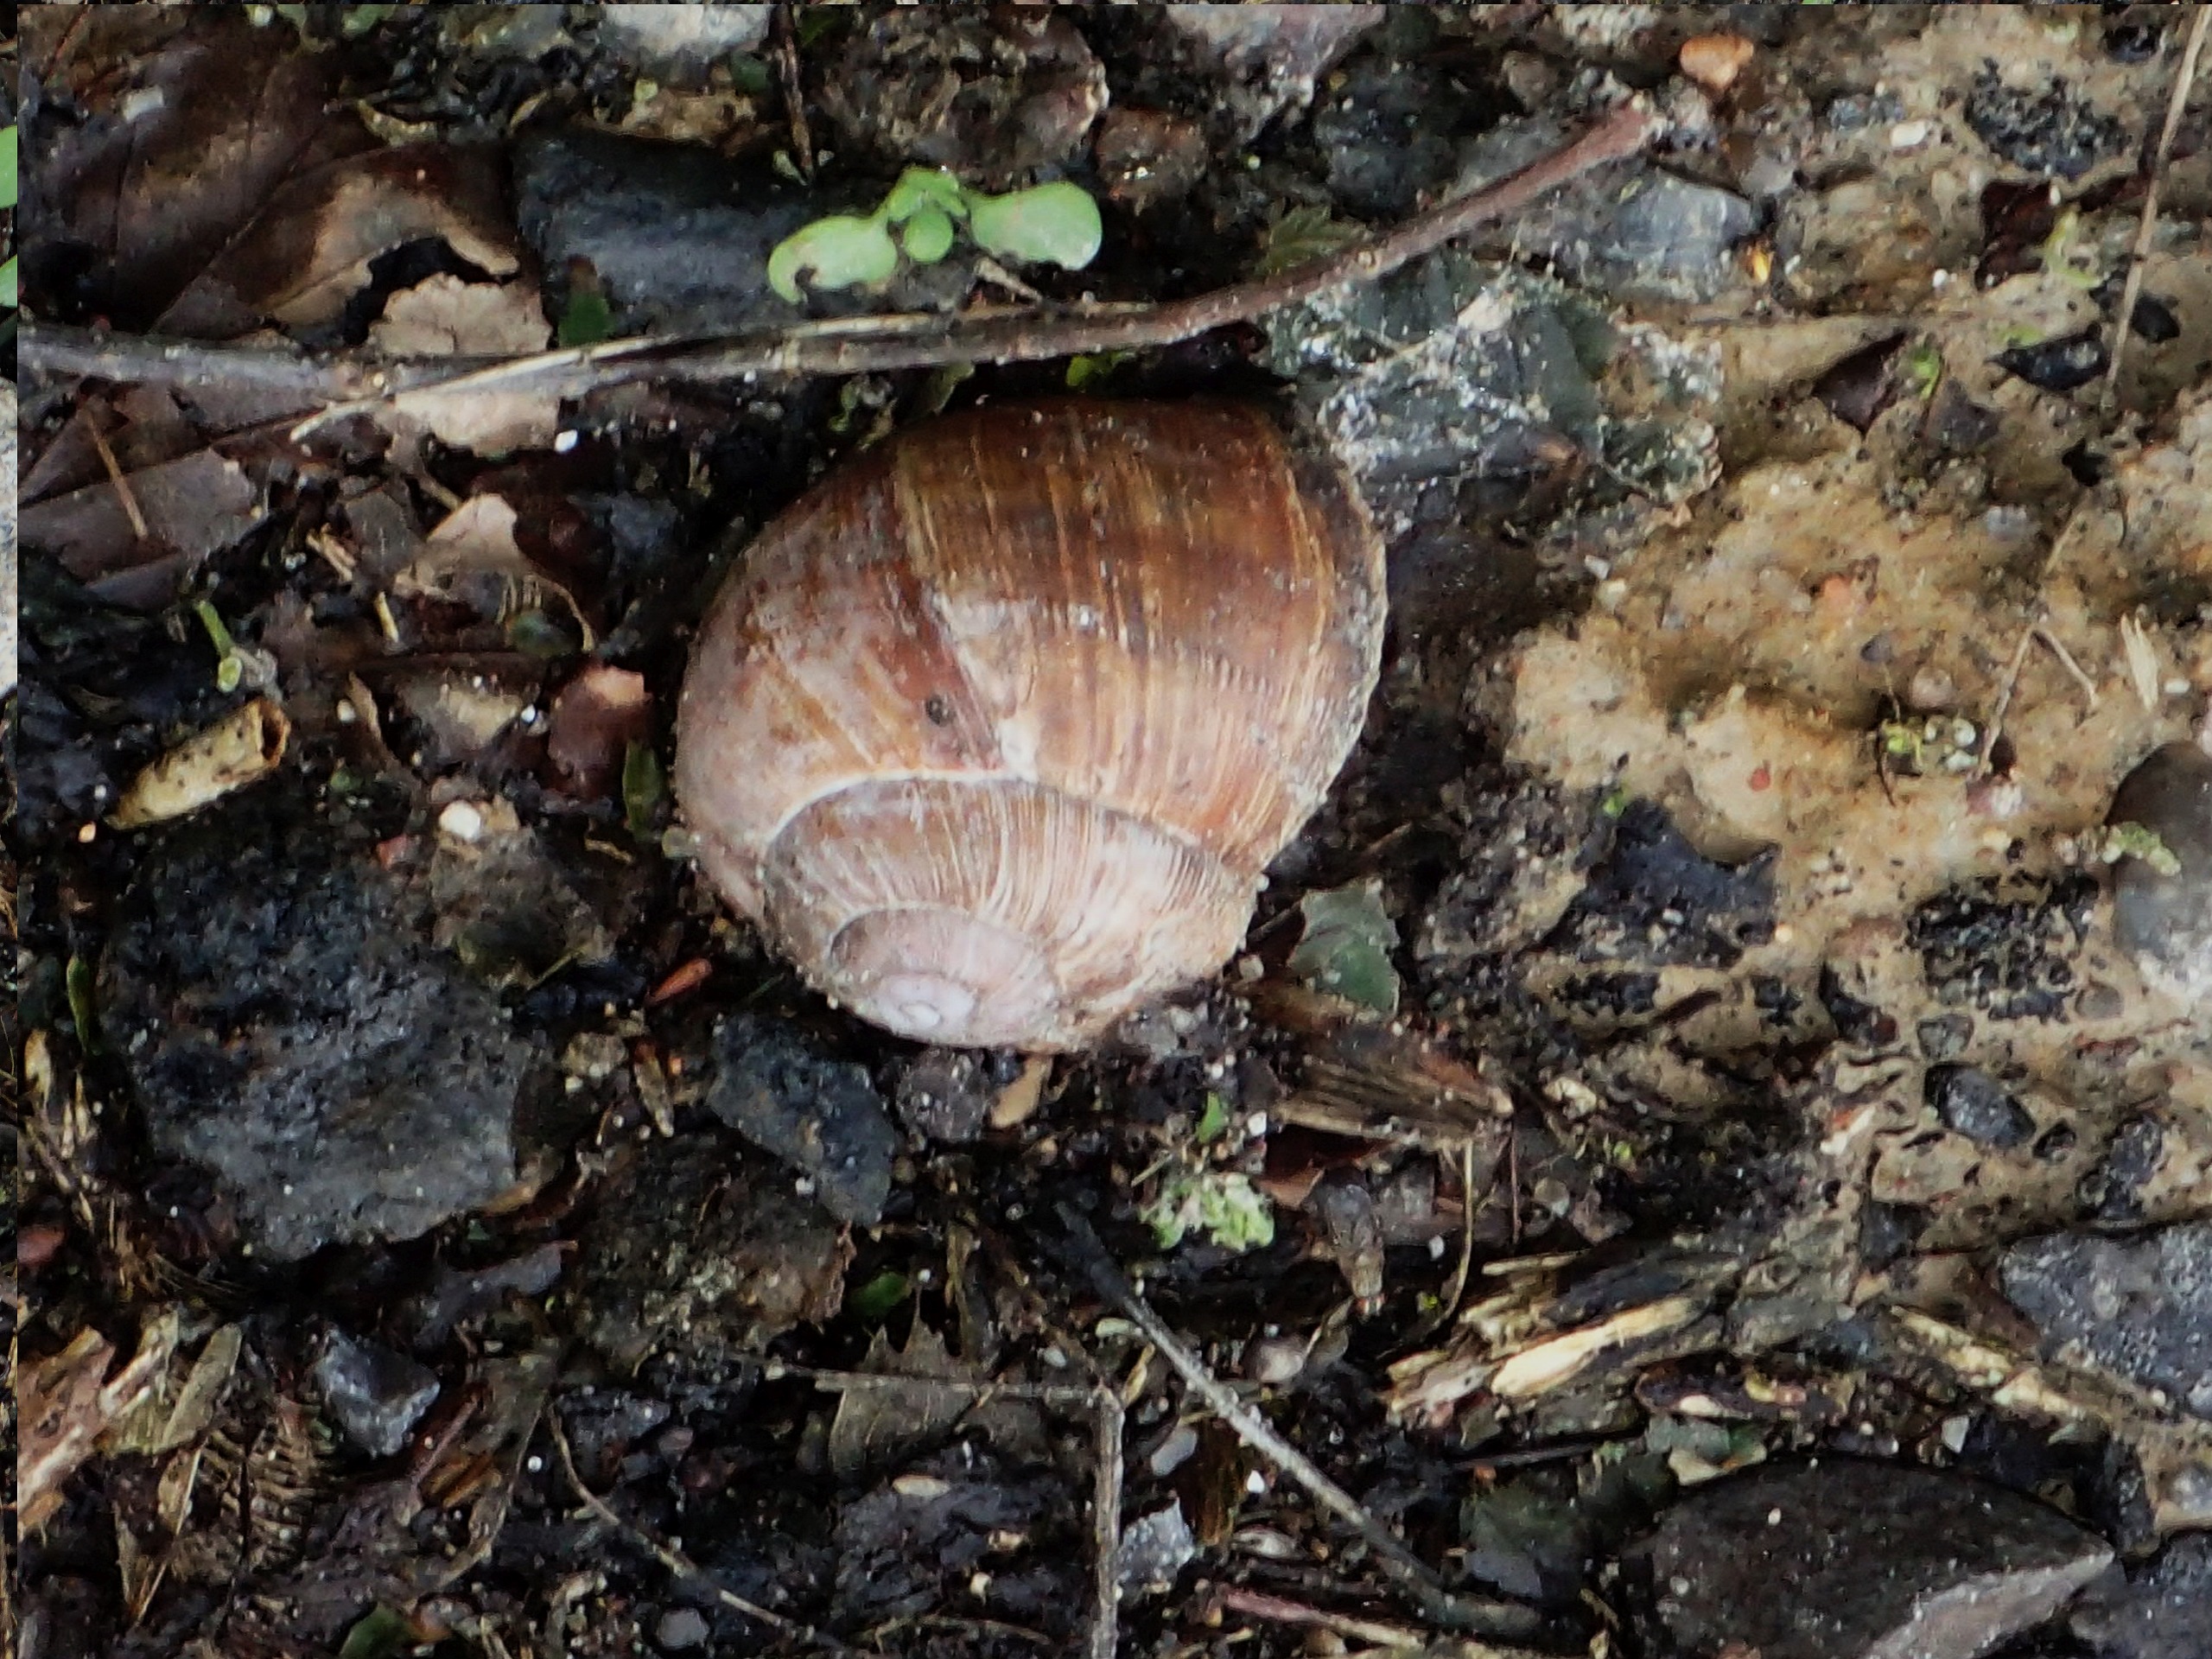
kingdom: Animalia
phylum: Mollusca
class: Gastropoda
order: Stylommatophora
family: Helicidae
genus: Helix
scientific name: Helix pomatia
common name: Vinbjergsnegl
